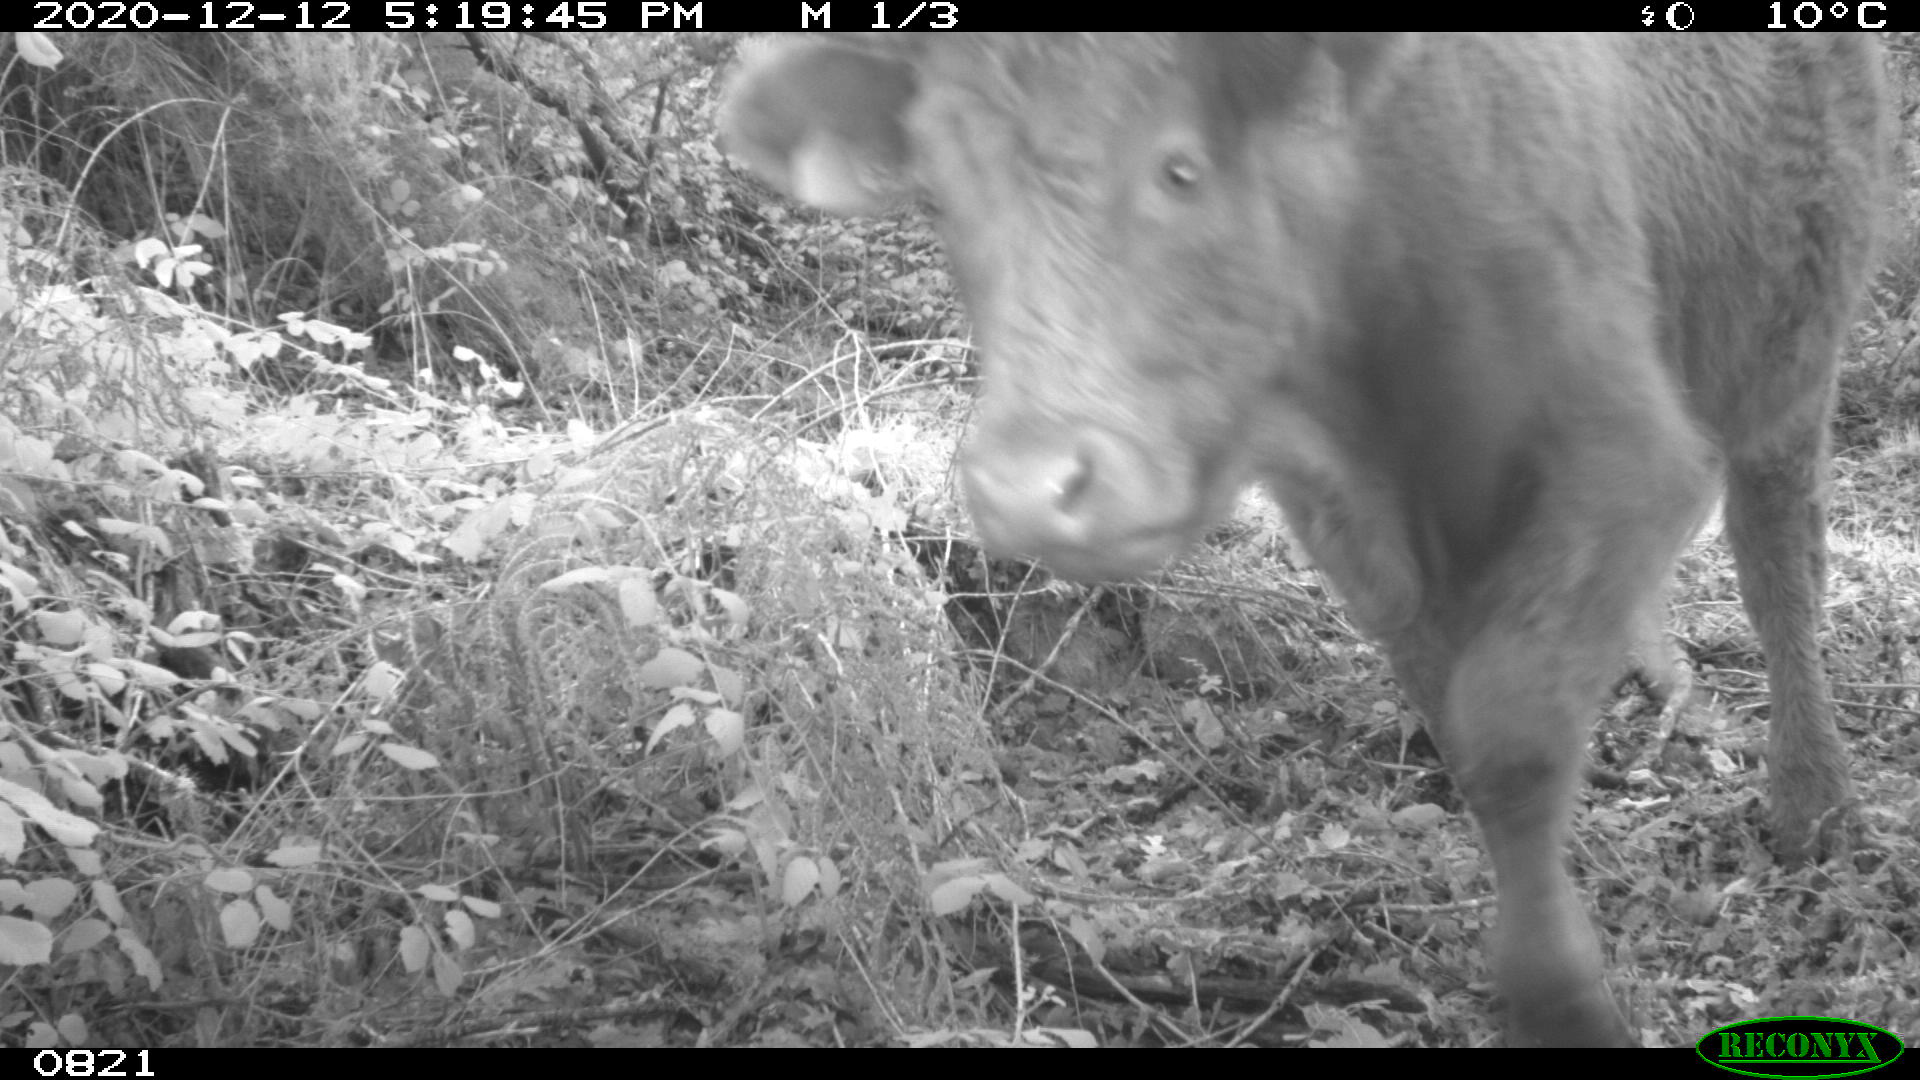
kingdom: Animalia
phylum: Chordata
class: Mammalia
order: Artiodactyla
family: Bovidae
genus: Bos
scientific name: Bos taurus
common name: Domesticated cattle
